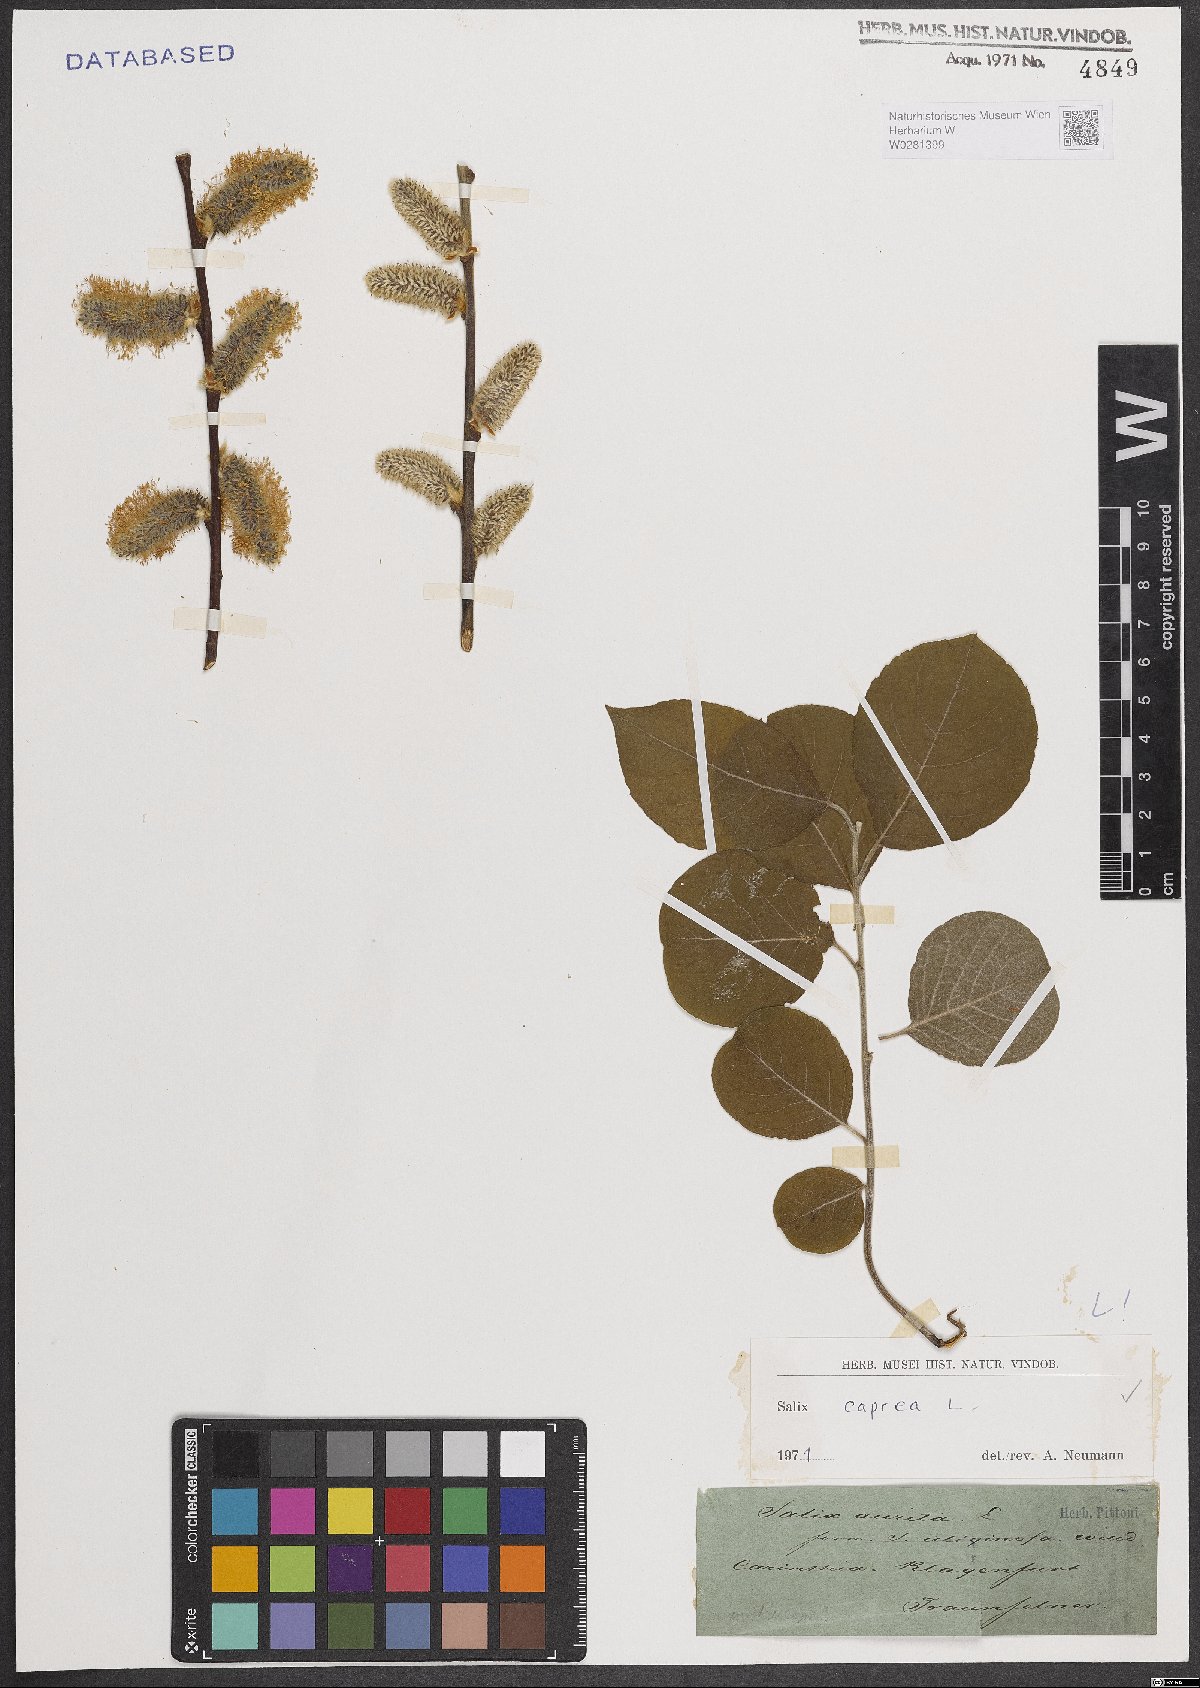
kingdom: Plantae
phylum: Tracheophyta
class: Magnoliopsida
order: Malpighiales
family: Salicaceae
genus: Salix
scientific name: Salix caprea
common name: Goat willow
